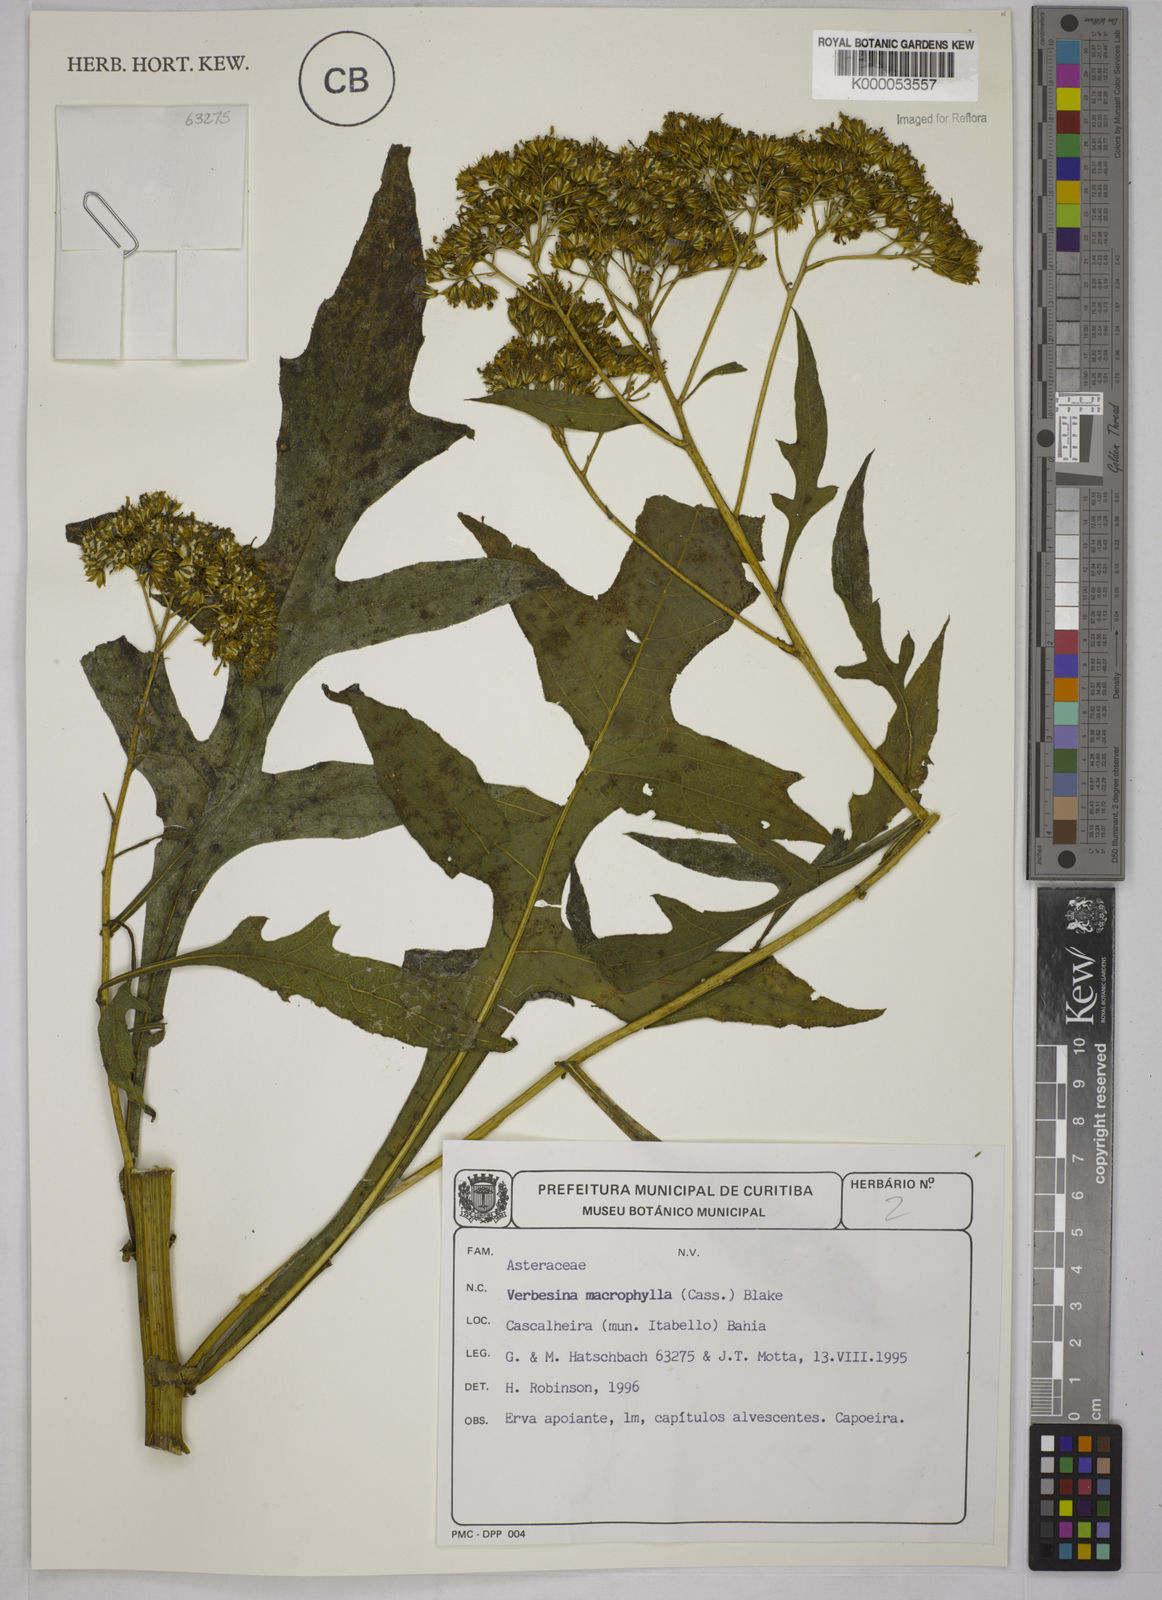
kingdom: Plantae
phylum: Tracheophyta
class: Magnoliopsida
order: Asterales
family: Asteraceae
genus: Verbesina
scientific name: Verbesina macrophylla
